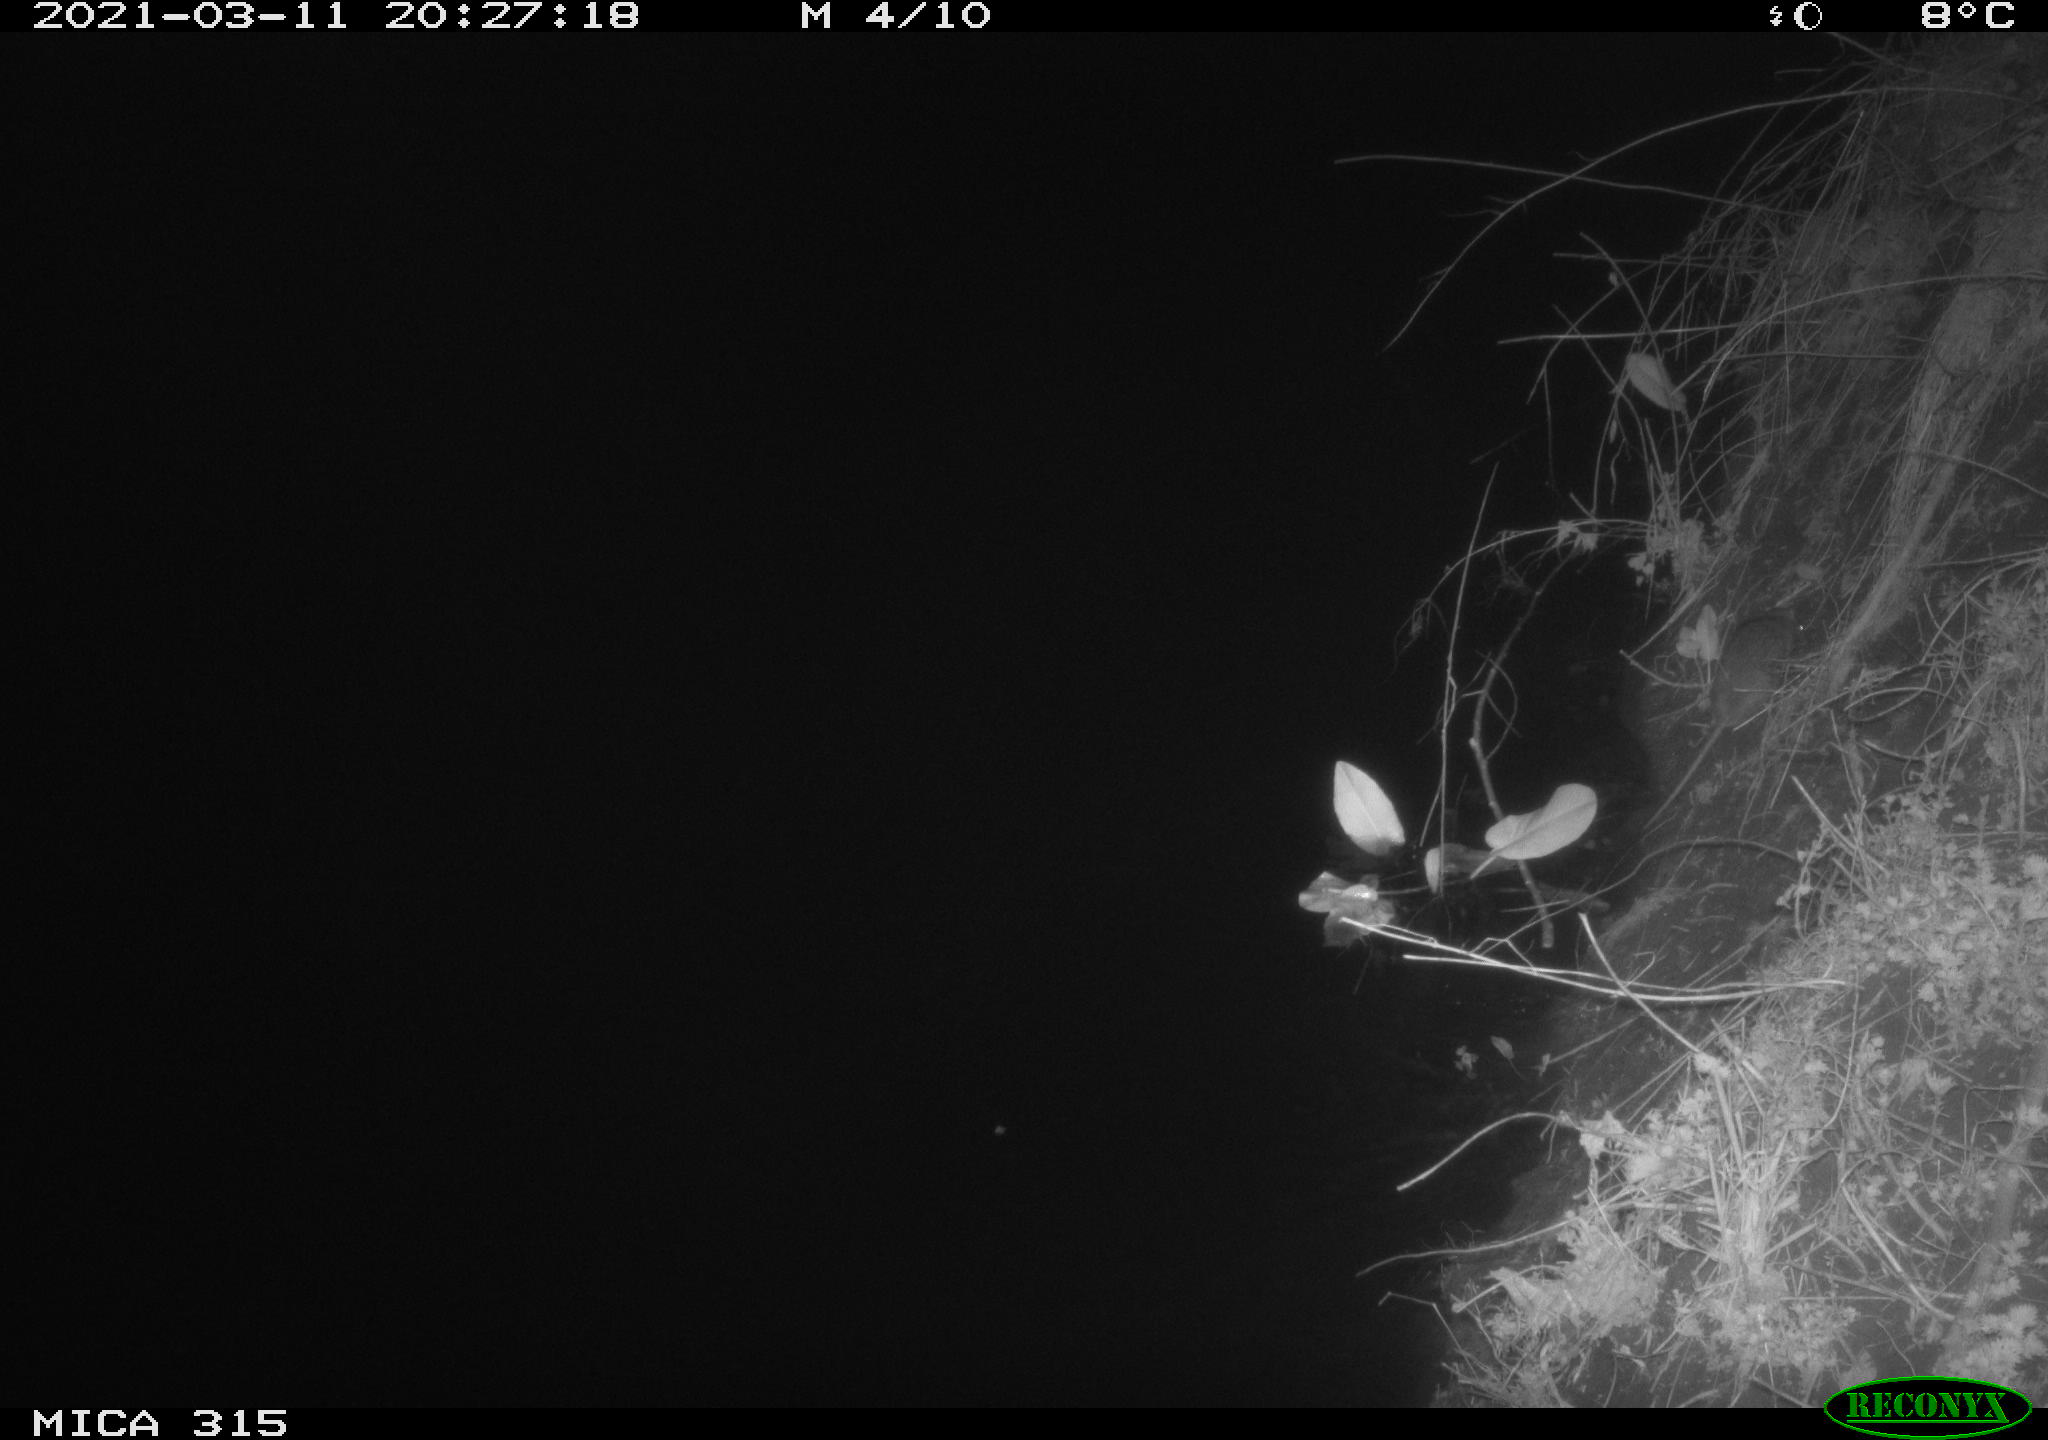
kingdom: Animalia
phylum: Chordata
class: Mammalia
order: Rodentia
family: Muridae
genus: Rattus
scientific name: Rattus norvegicus
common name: Brown rat
